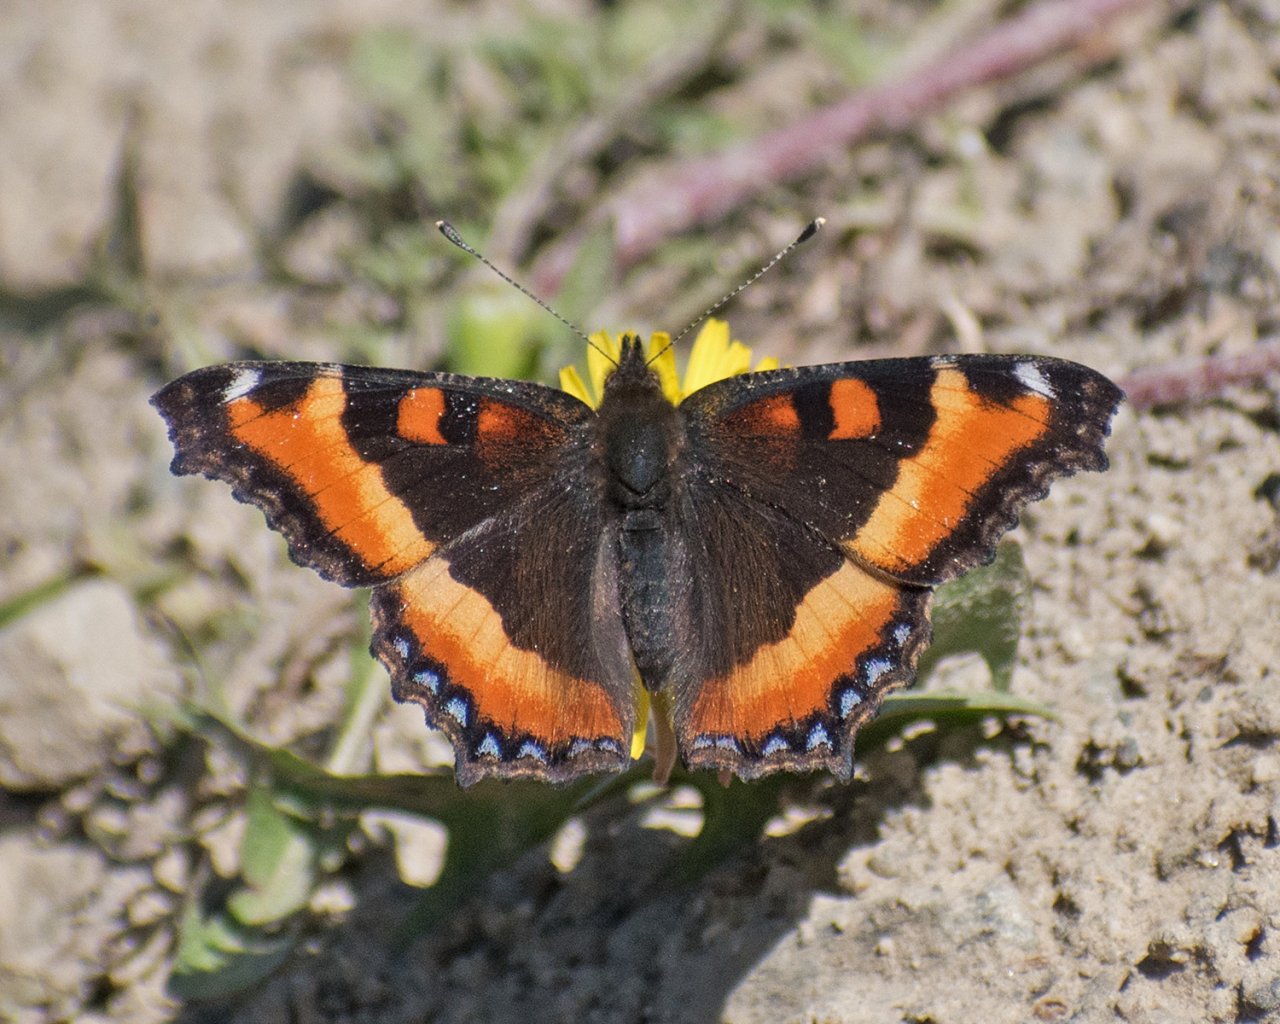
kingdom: Animalia
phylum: Arthropoda
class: Insecta
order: Lepidoptera
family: Nymphalidae
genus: Aglais
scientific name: Aglais milberti
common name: Milbert's Tortoiseshell
